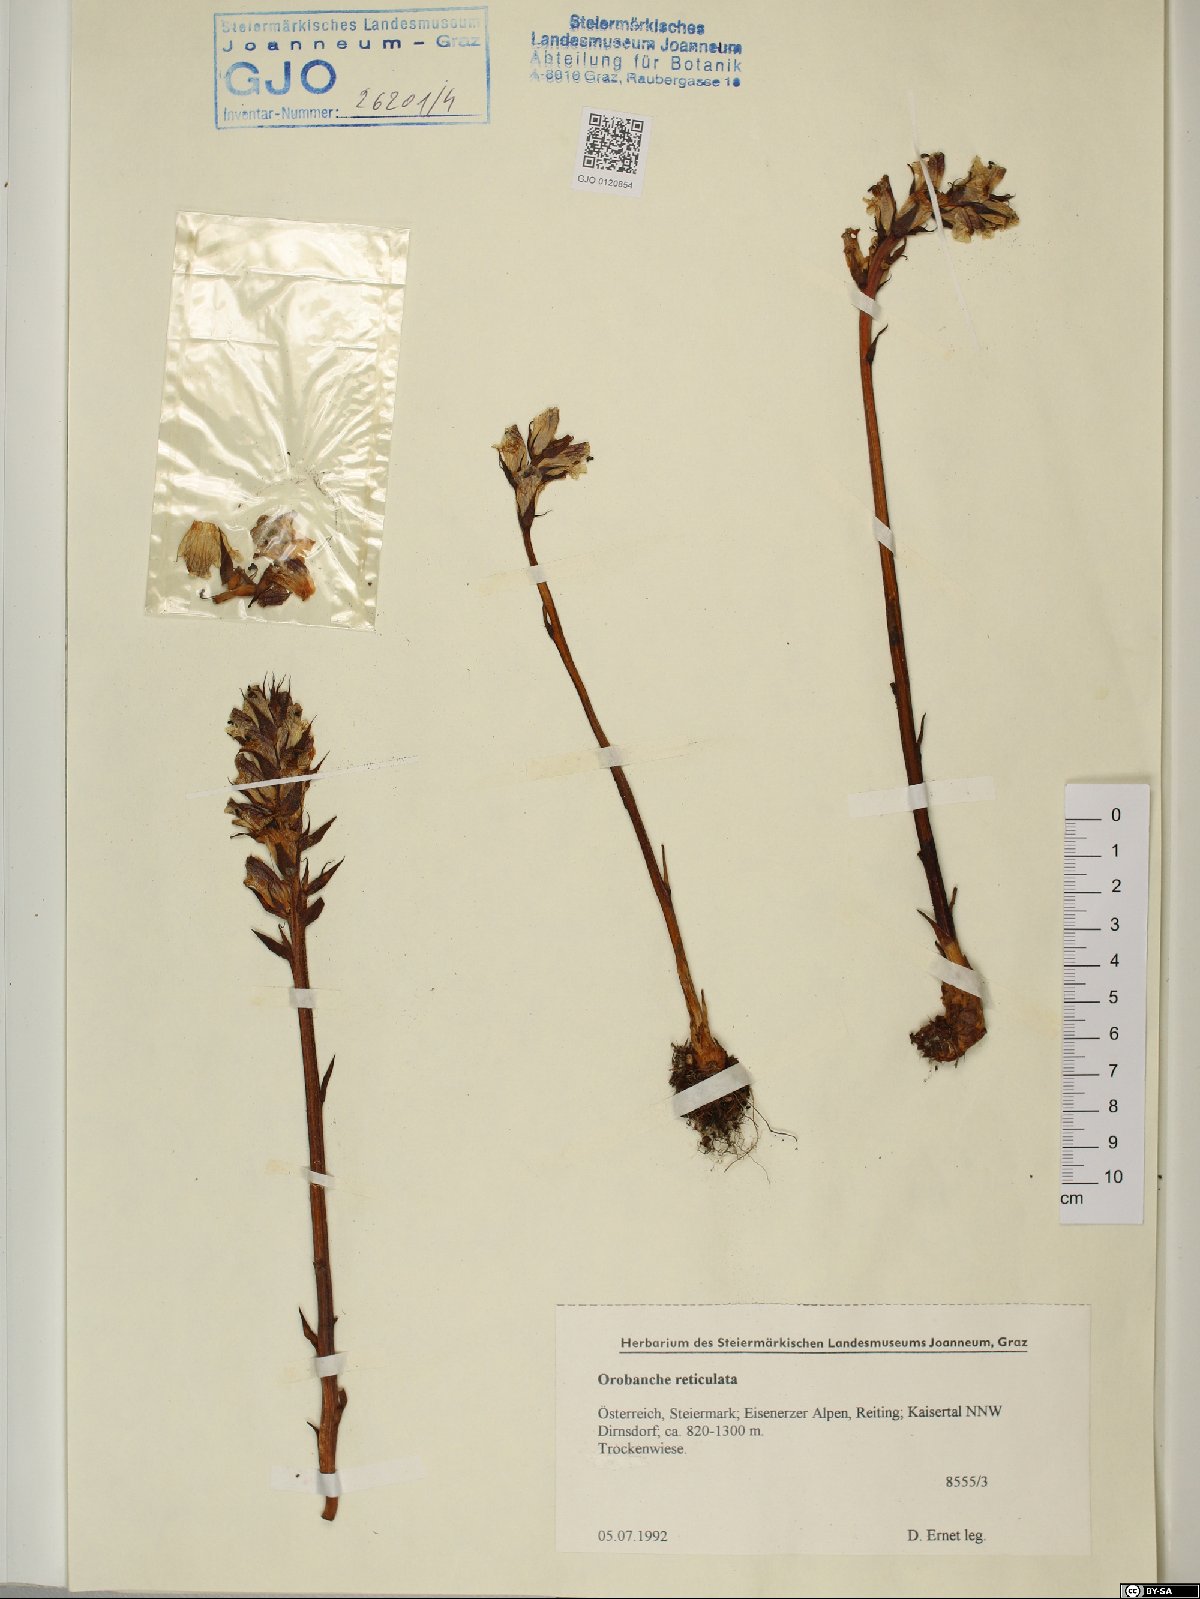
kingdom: Plantae
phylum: Tracheophyta
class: Magnoliopsida
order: Lamiales
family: Orobanchaceae
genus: Orobanche
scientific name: Orobanche reticulata
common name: Thistle broomrape
